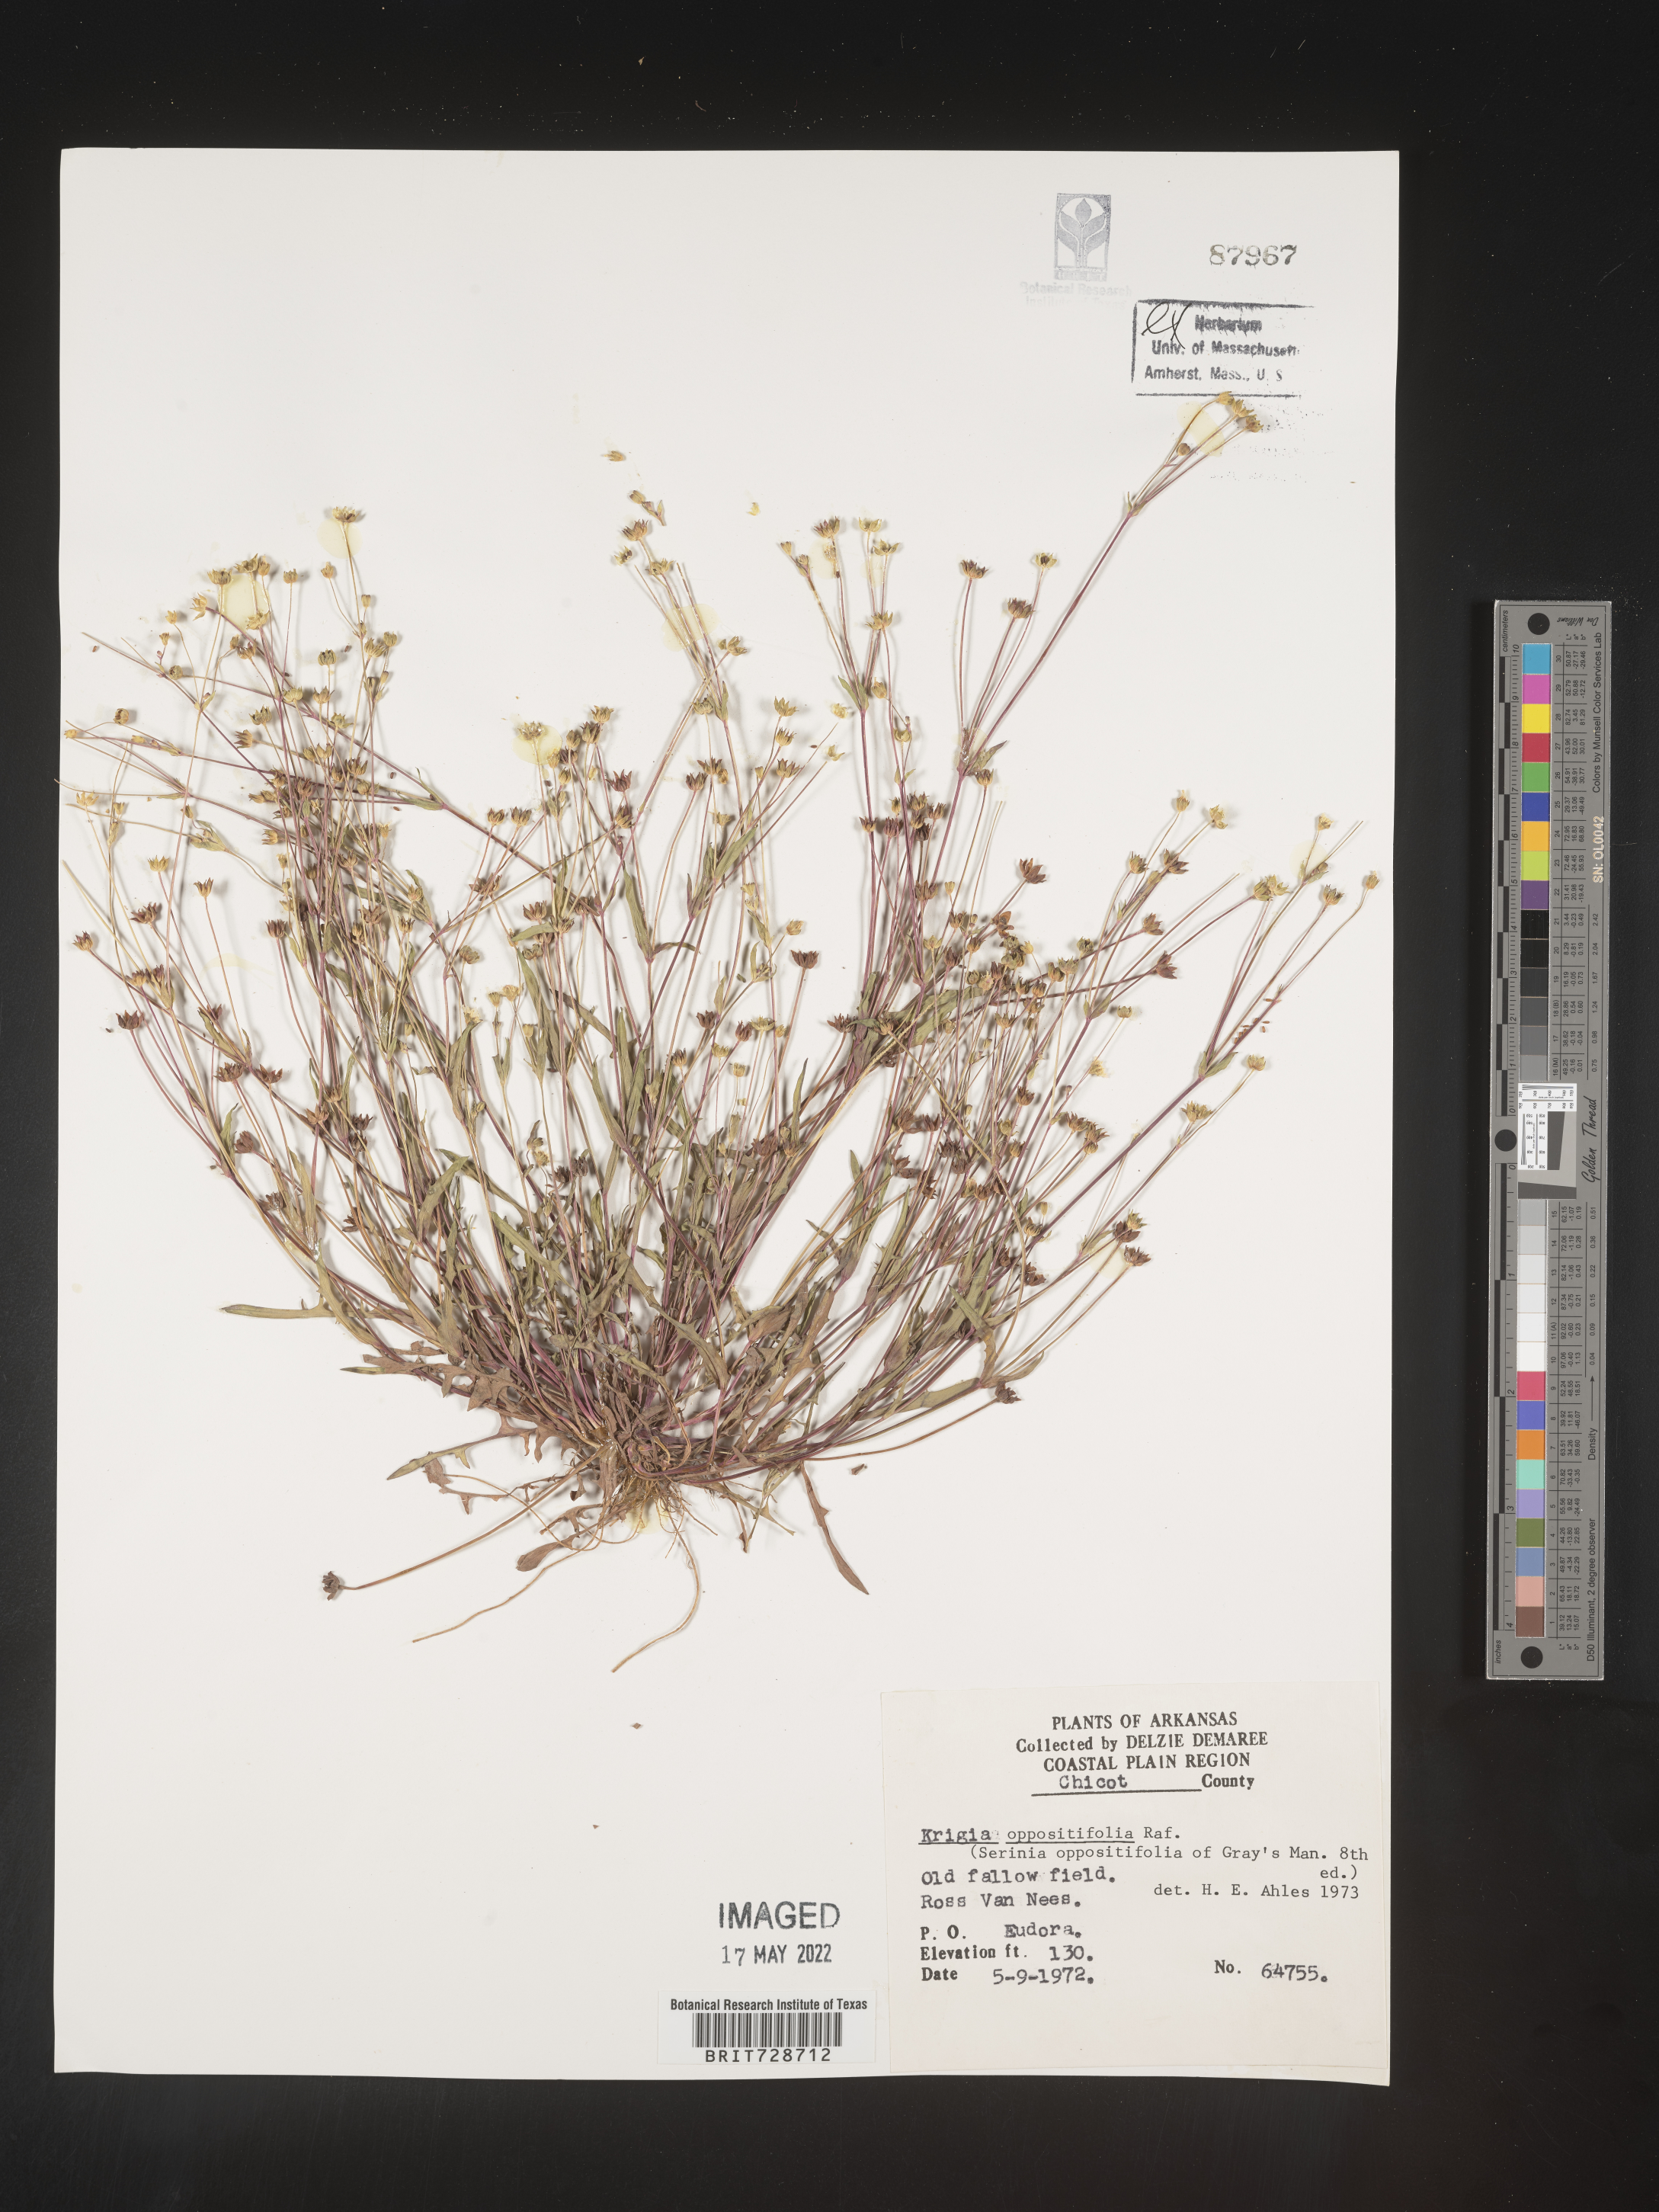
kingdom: Plantae
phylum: Tracheophyta
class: Magnoliopsida
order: Asterales
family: Asteraceae
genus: Krigia
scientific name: Krigia cespitosa
